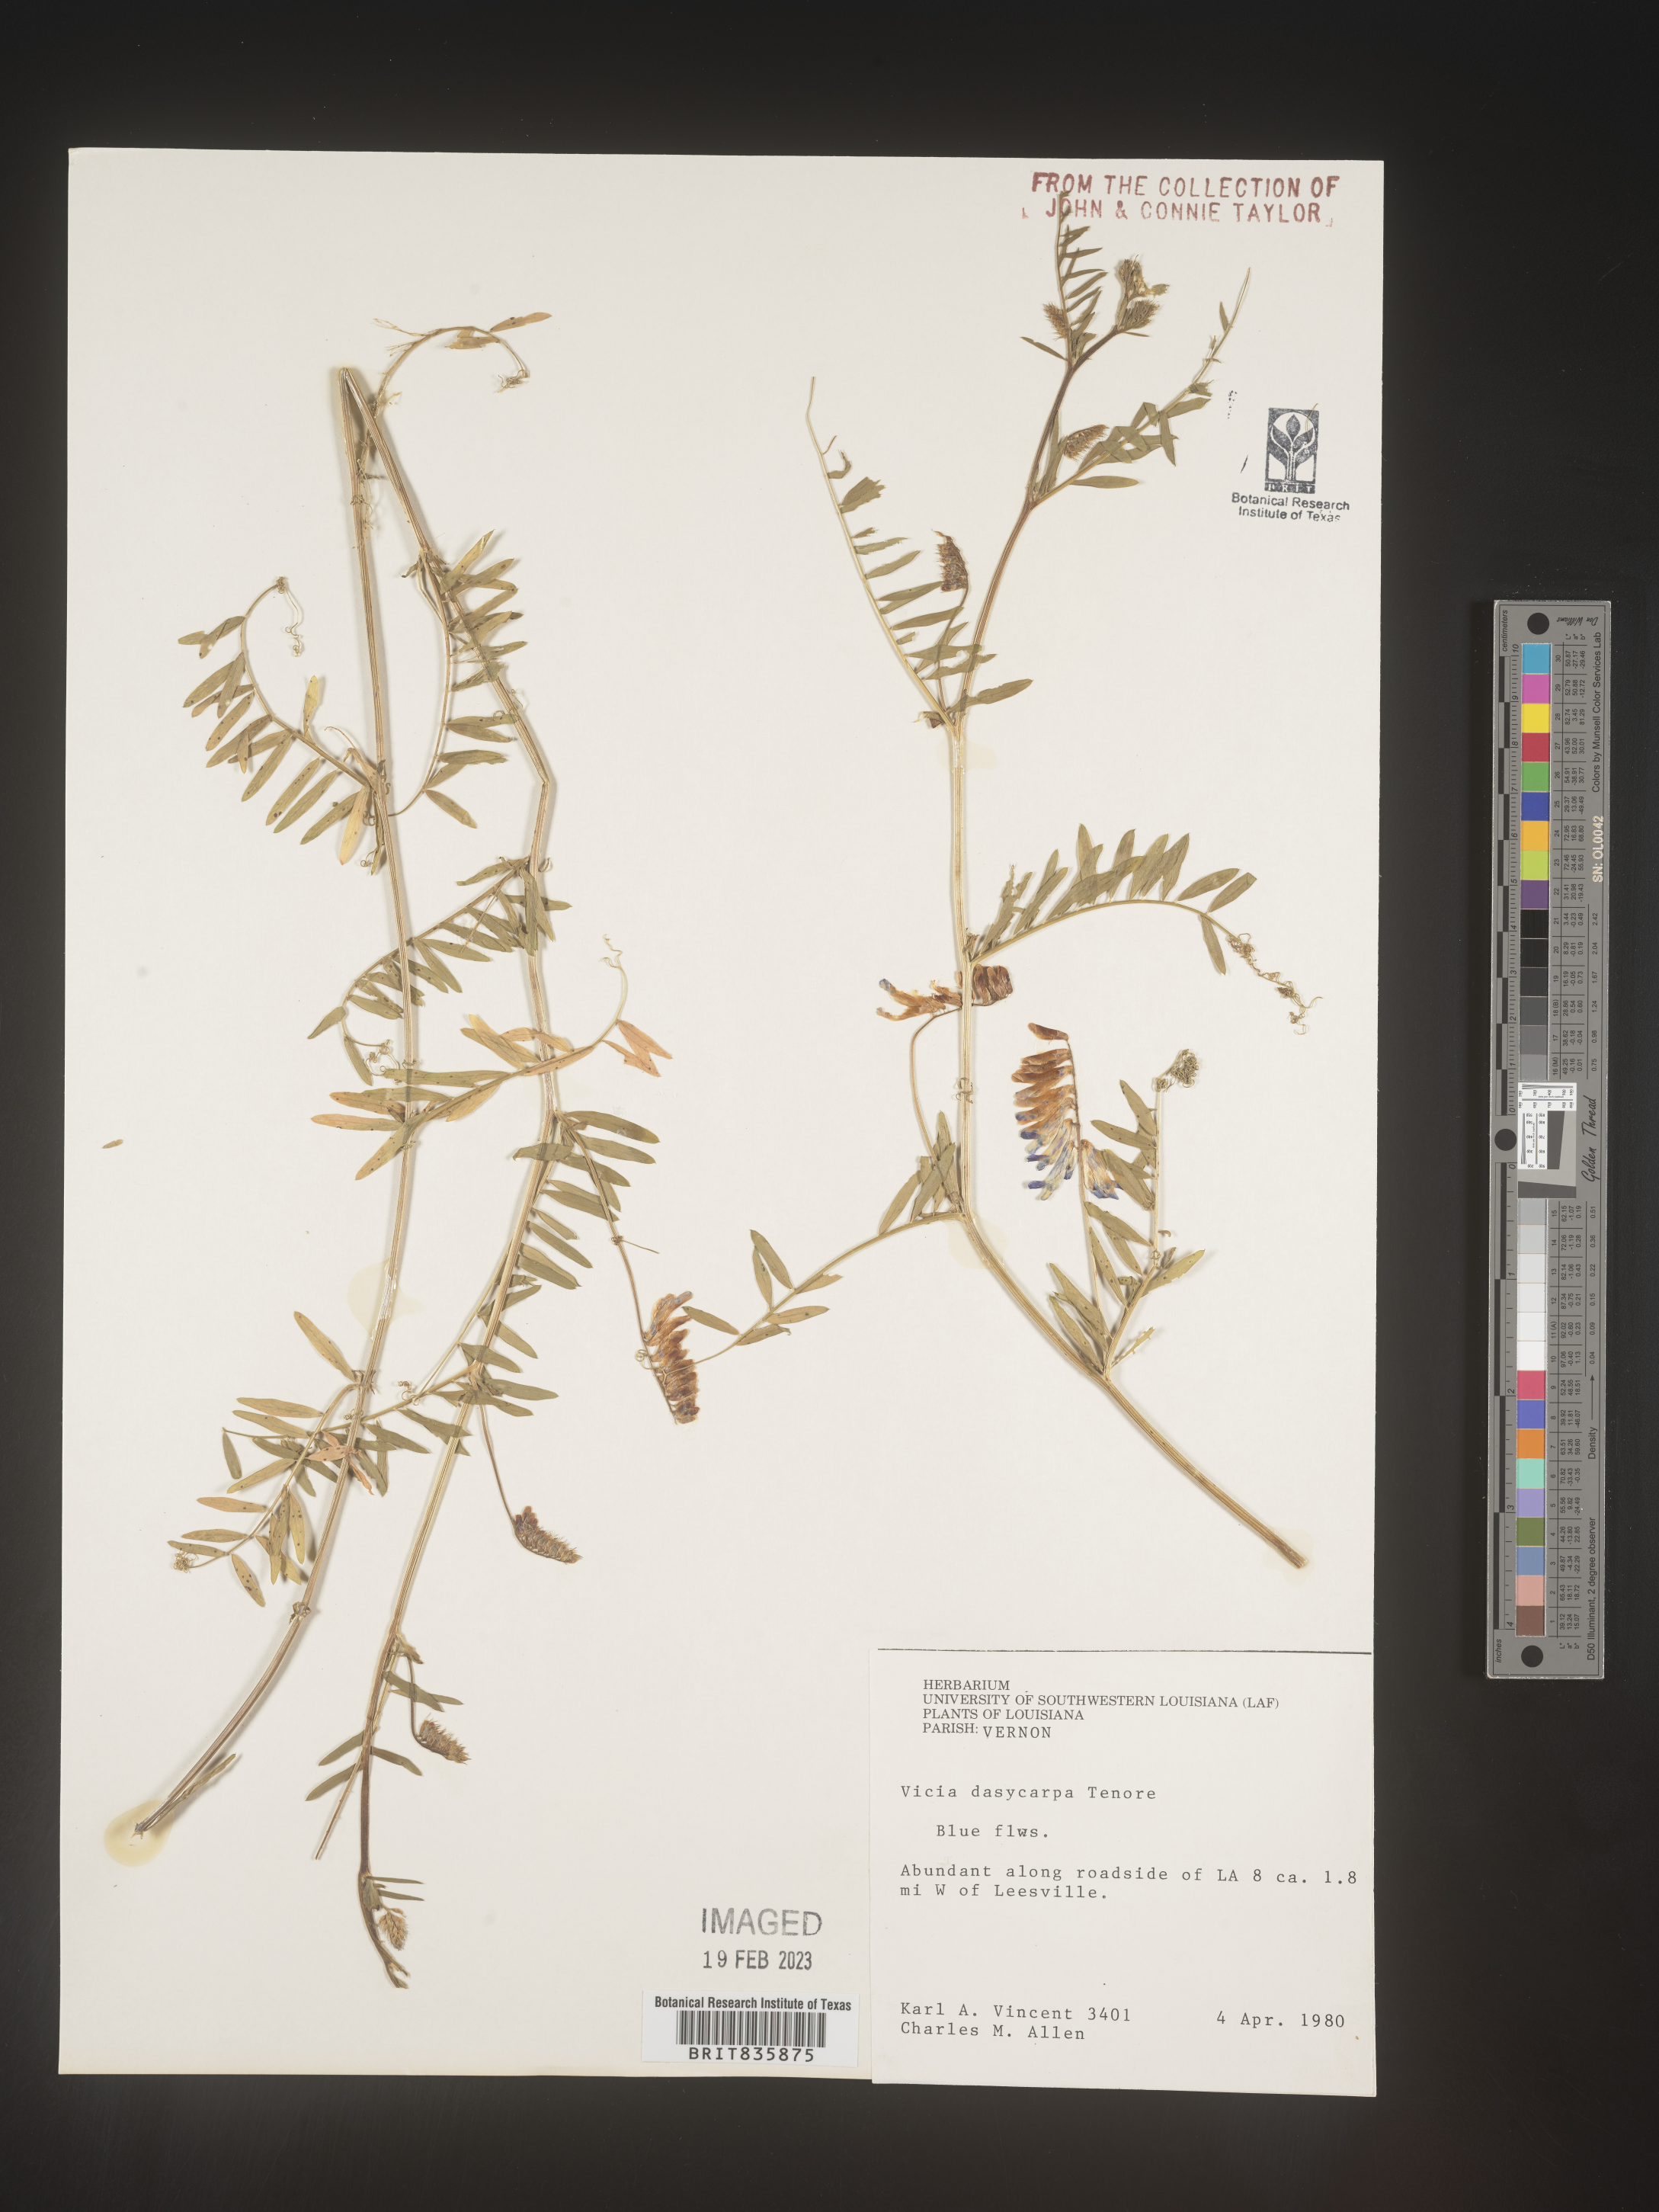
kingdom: Plantae
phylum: Tracheophyta
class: Magnoliopsida
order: Fabales
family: Fabaceae
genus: Vicia
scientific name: Vicia villosa
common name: Fodder vetch
